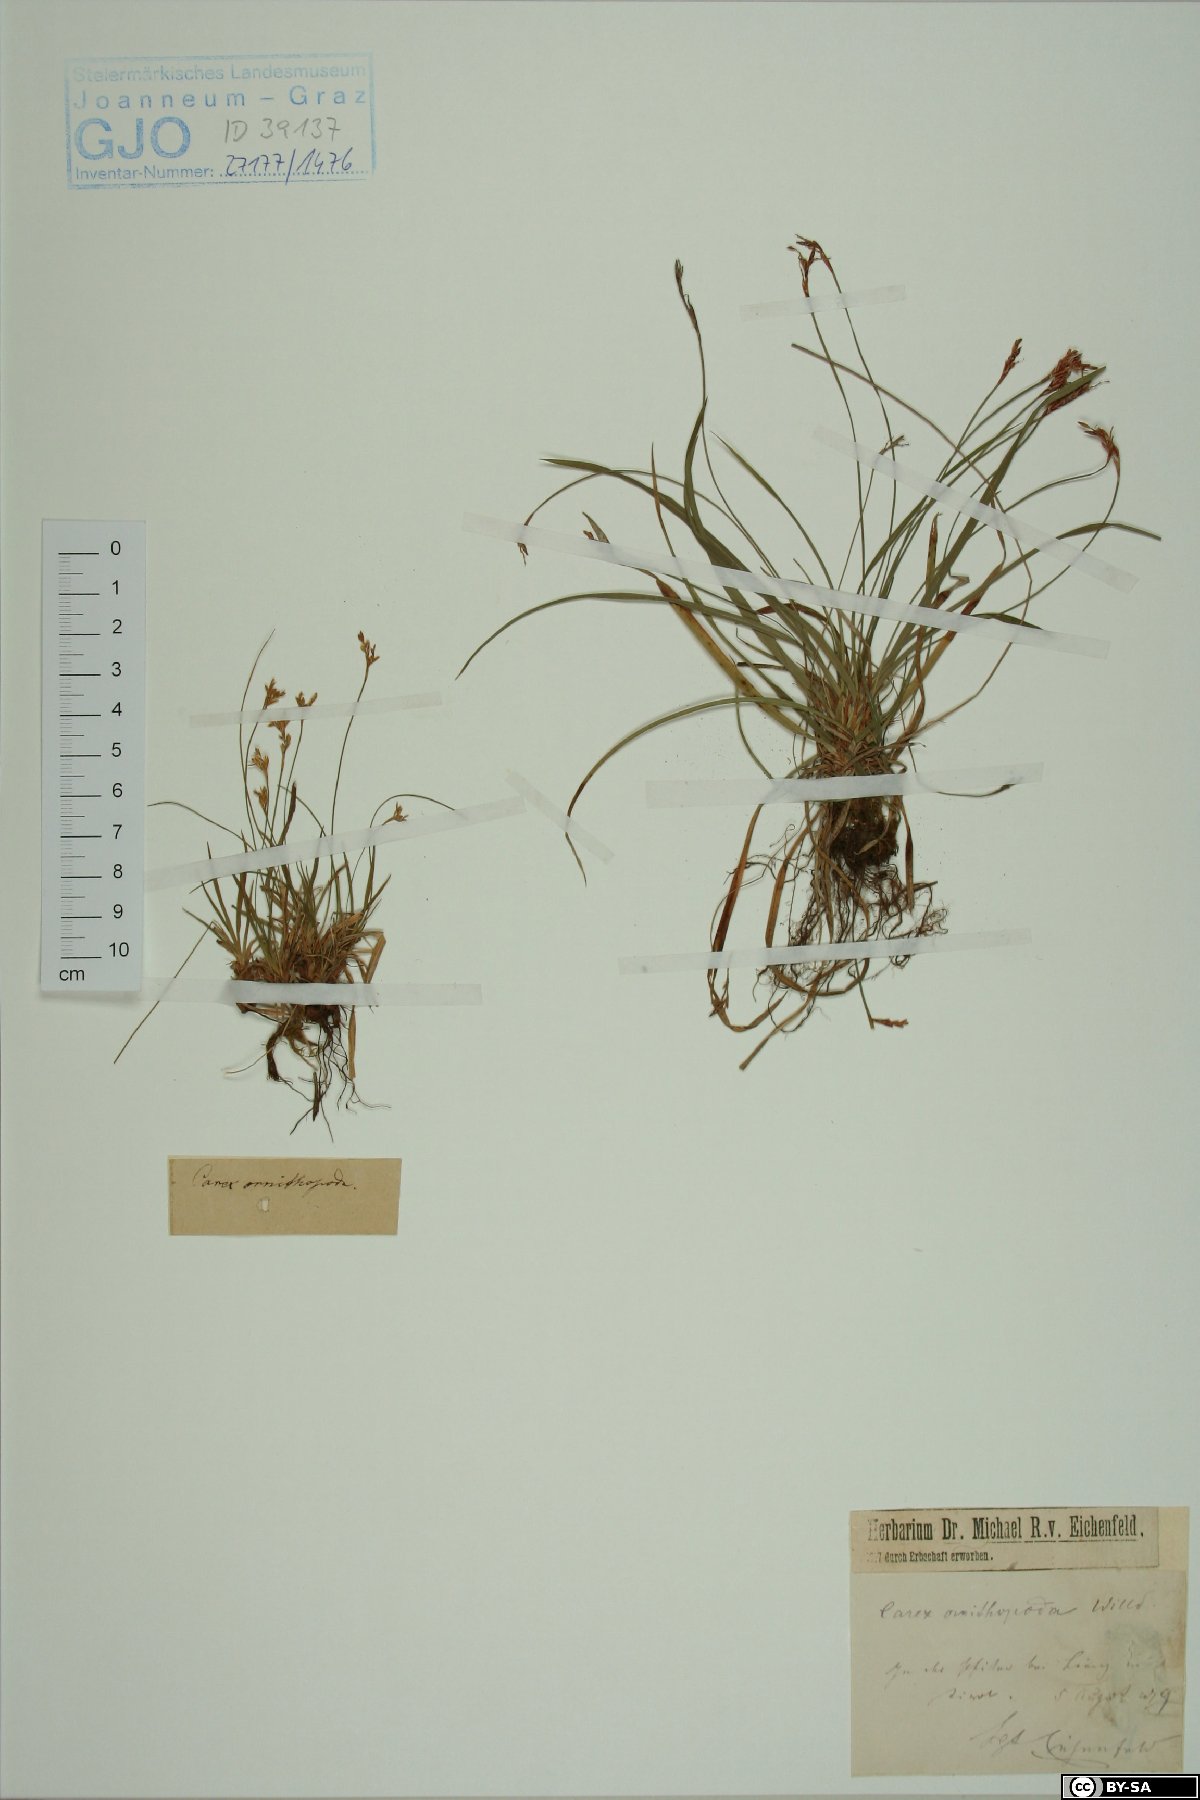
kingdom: Plantae
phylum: Tracheophyta
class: Liliopsida
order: Poales
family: Cyperaceae
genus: Carex
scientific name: Carex ornithopoda
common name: Bird's-foot sedge
